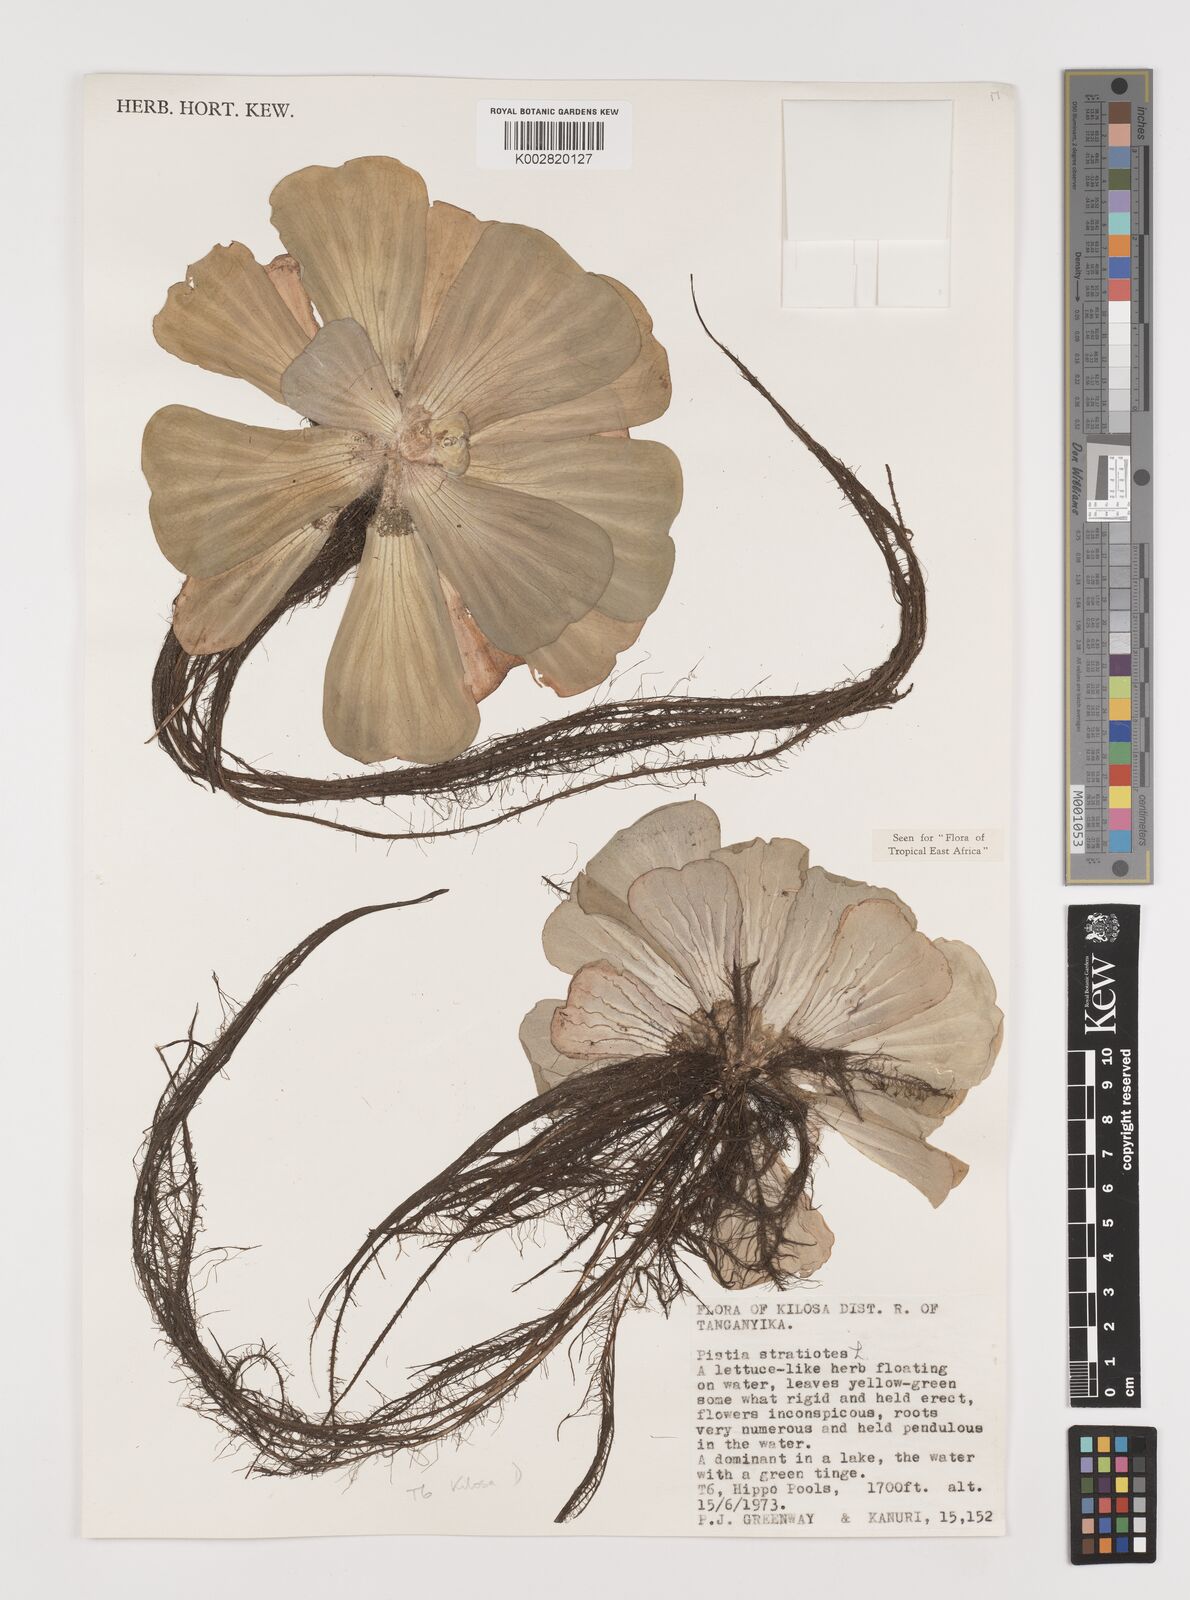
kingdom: Plantae
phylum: Tracheophyta
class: Liliopsida
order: Alismatales
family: Araceae
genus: Pistia
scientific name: Pistia stratiotes
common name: Water lettuce
